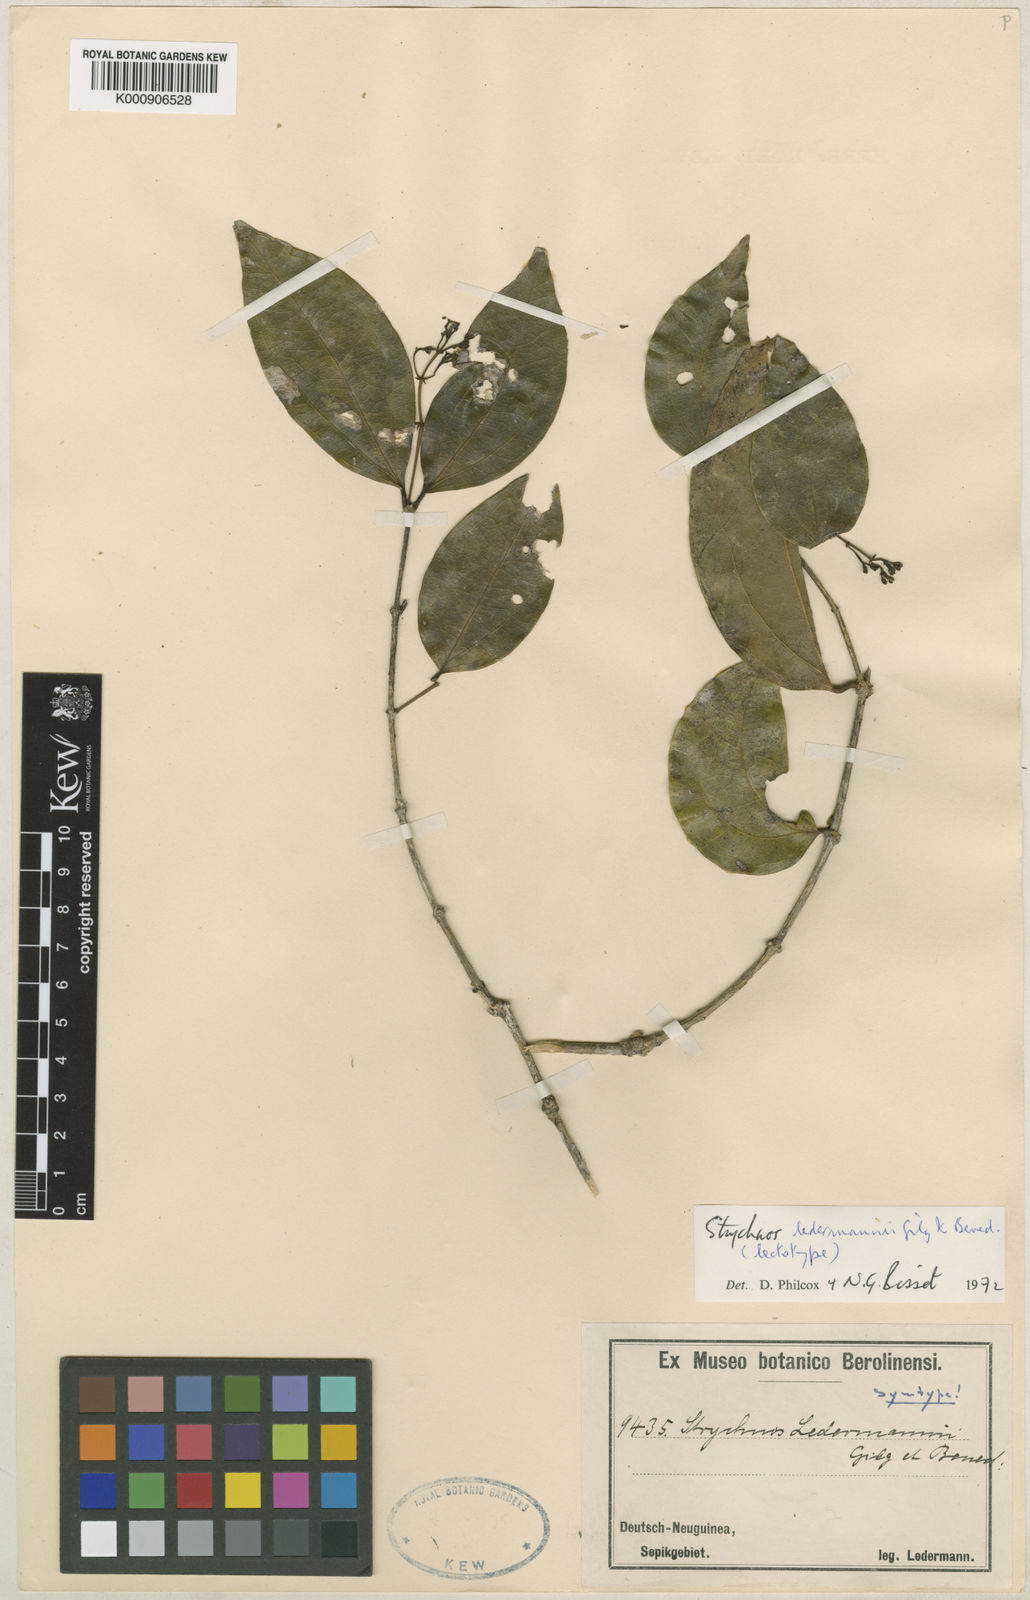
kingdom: Plantae
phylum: Tracheophyta
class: Magnoliopsida
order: Gentianales
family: Loganiaceae
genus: Strychnos
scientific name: Strychnos axillaris
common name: Strychninebush
